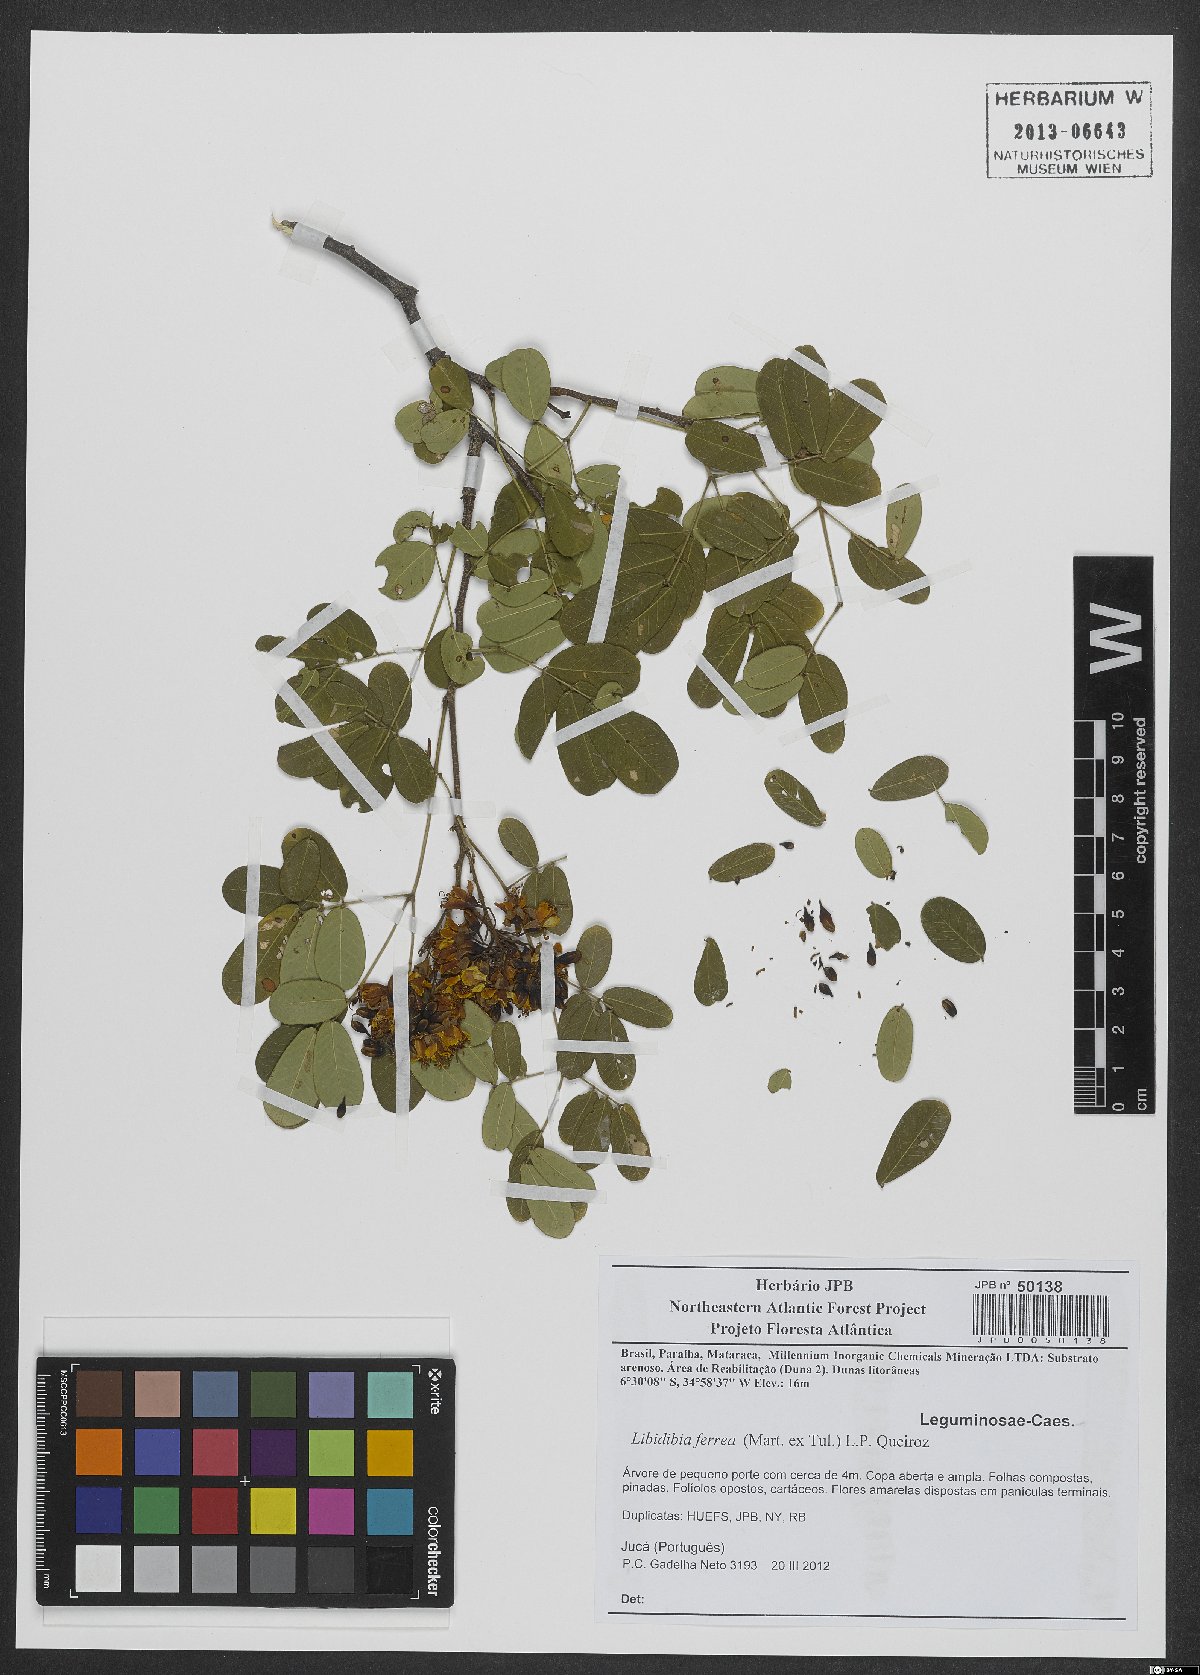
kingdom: Plantae
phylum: Tracheophyta
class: Magnoliopsida
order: Fabales
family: Fabaceae
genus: Libidibia
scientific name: Libidibia ferrea
